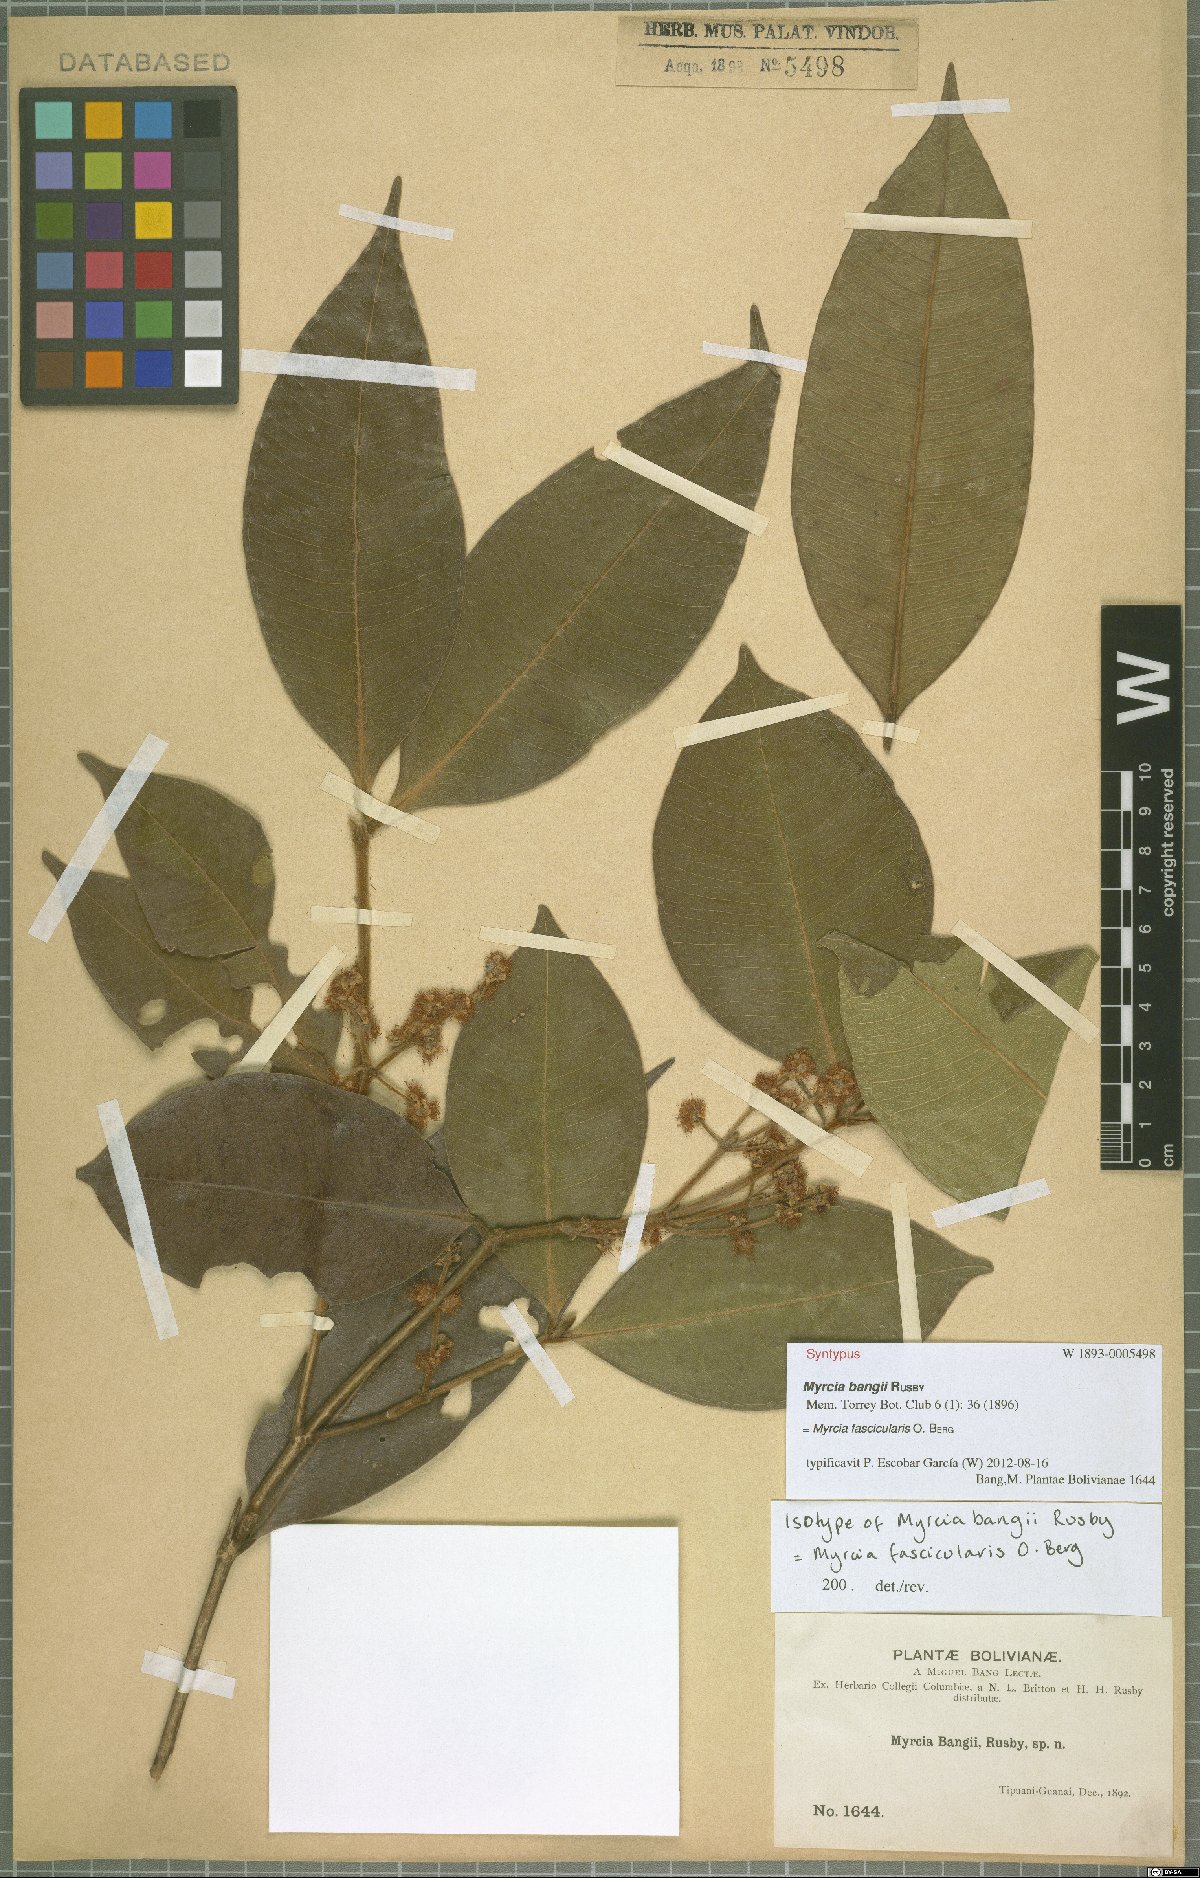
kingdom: Plantae
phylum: Tracheophyta
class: Magnoliopsida
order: Myrtales
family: Myrtaceae
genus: Myrcia
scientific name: Myrcia fascicularis
